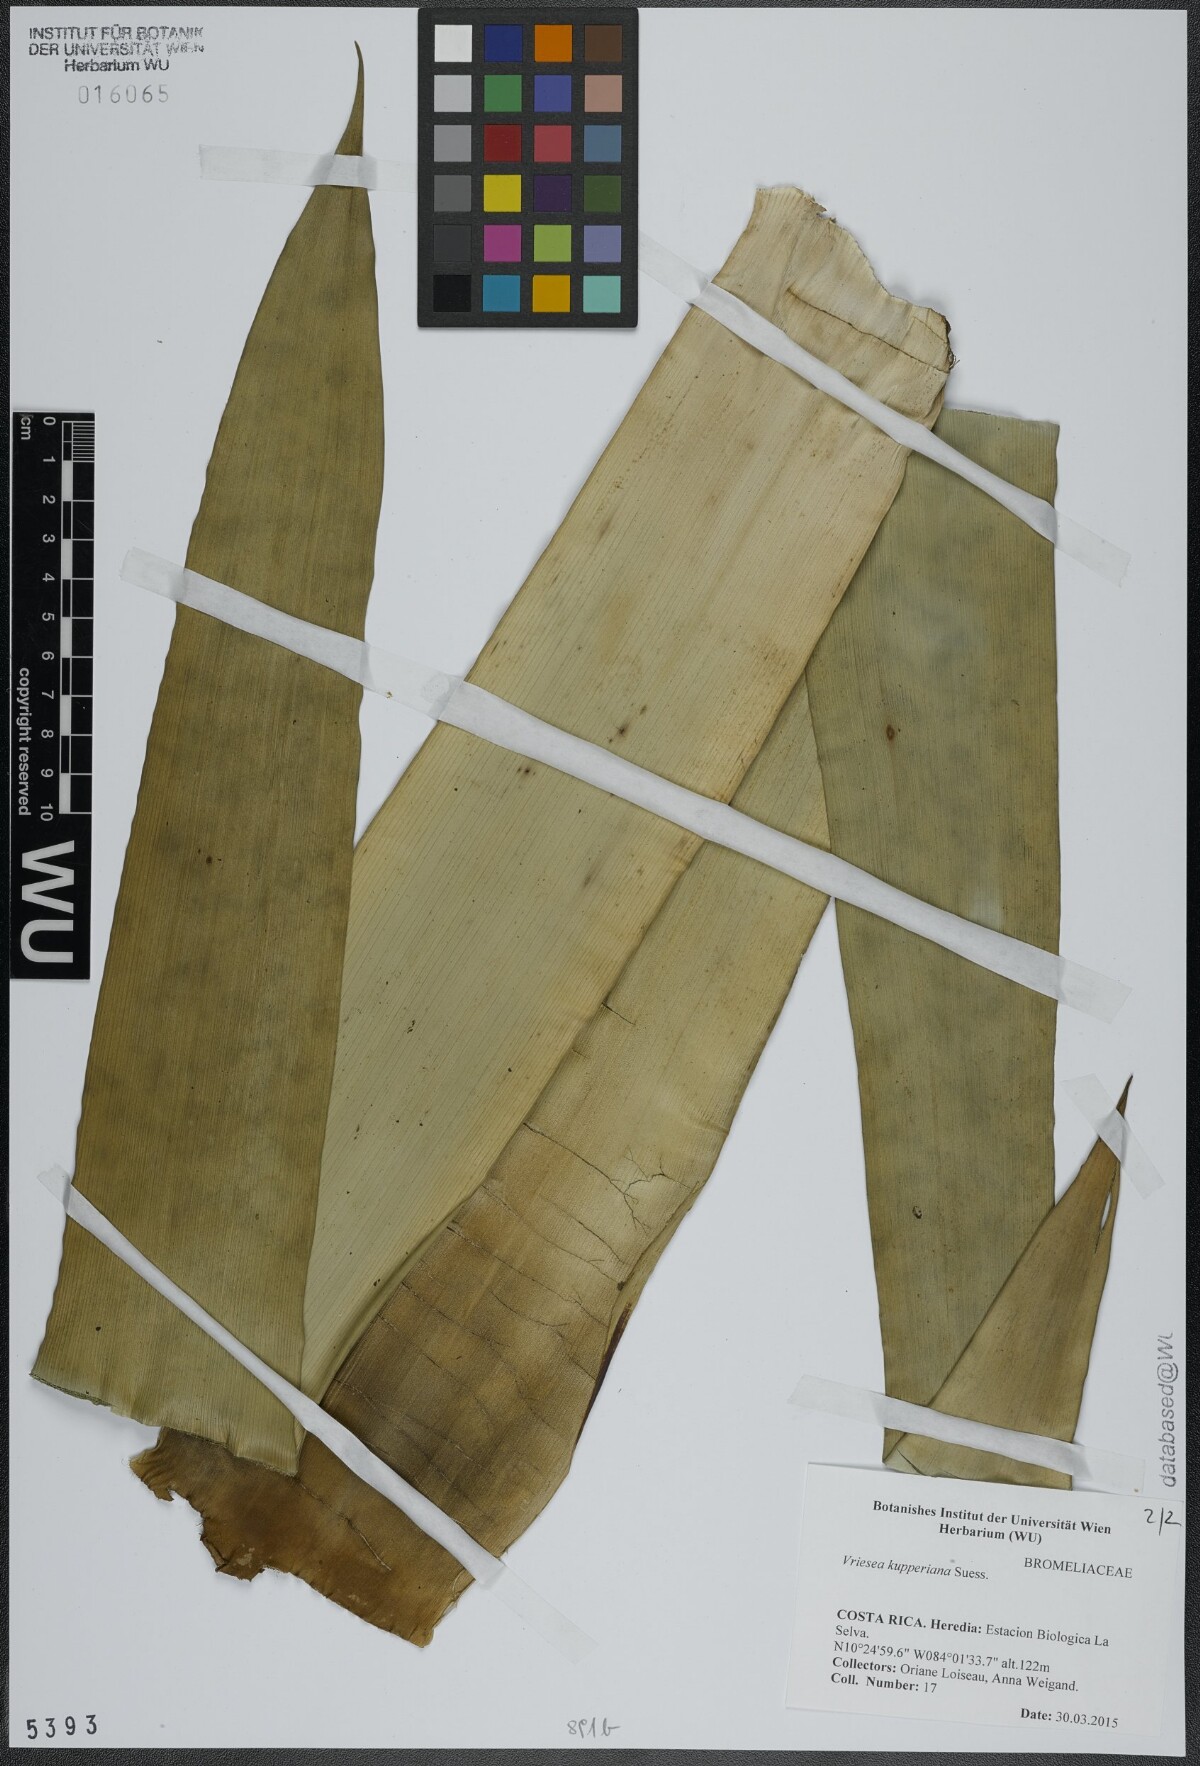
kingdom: Plantae
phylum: Tracheophyta
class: Liliopsida
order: Poales
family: Bromeliaceae
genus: Werauhia
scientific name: Werauhia kupperiana
